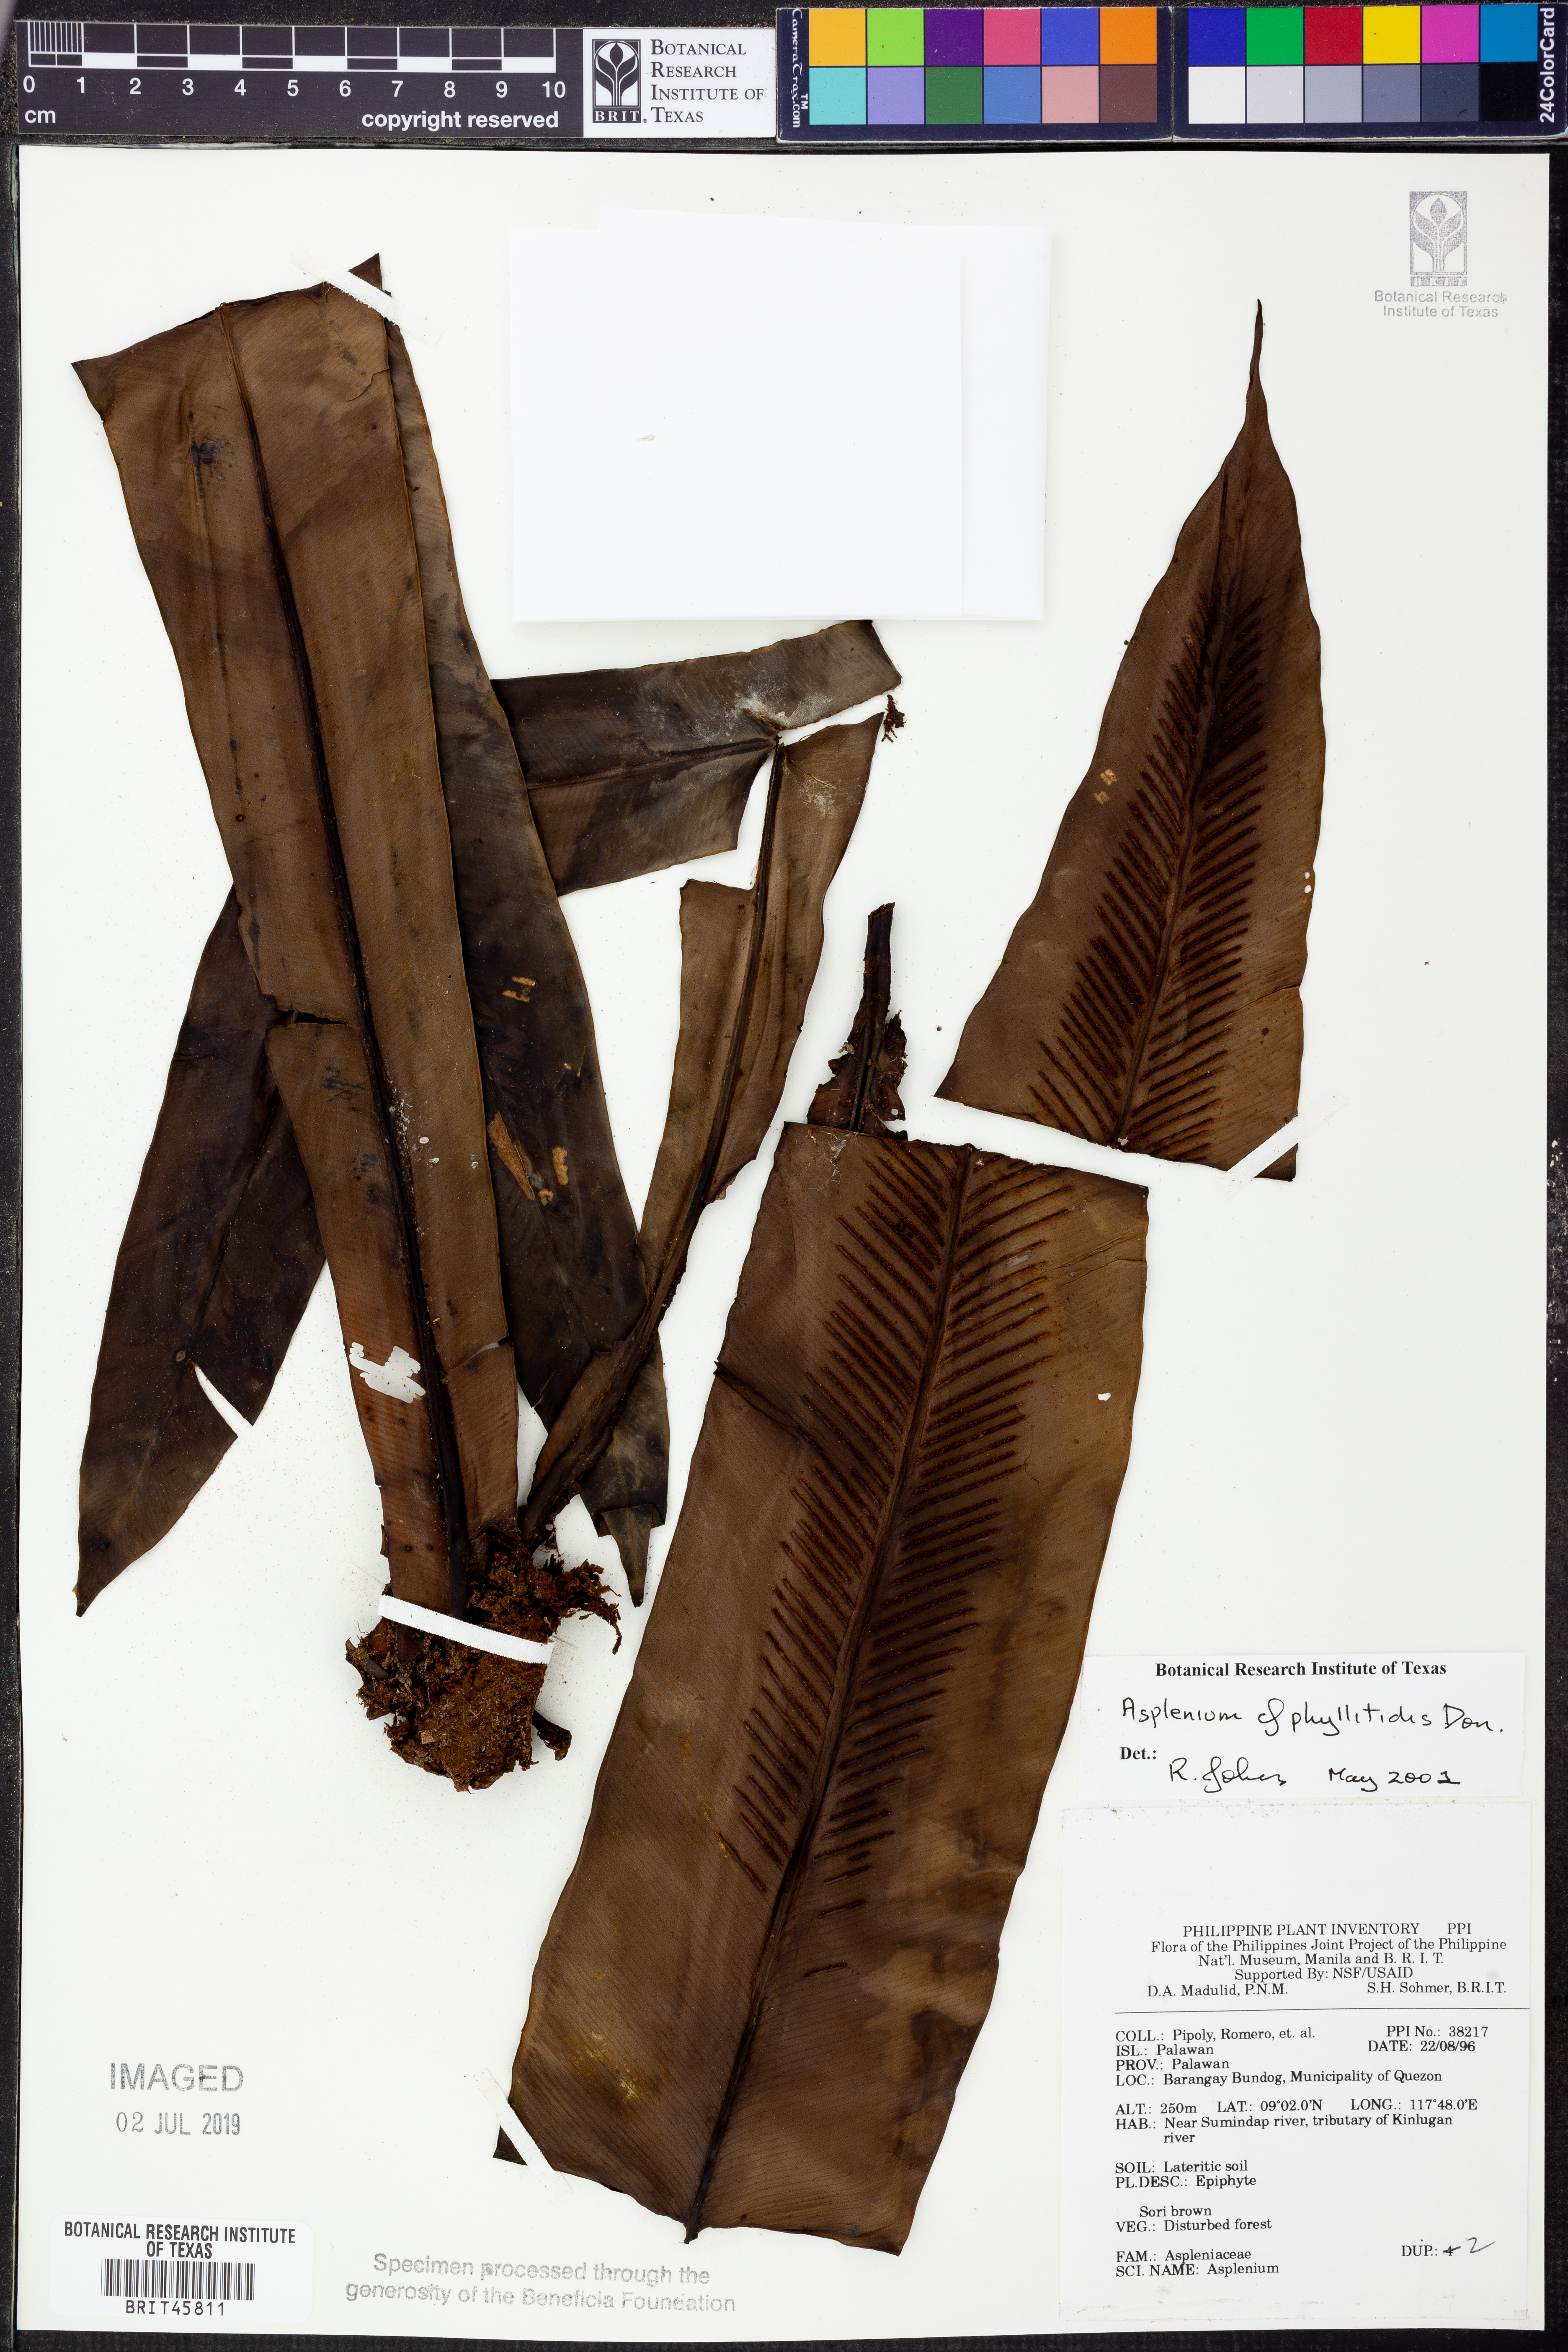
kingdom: Plantae
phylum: Tracheophyta
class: Polypodiopsida
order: Polypodiales
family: Aspleniaceae
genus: Asplenium
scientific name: Asplenium phyllitidis
